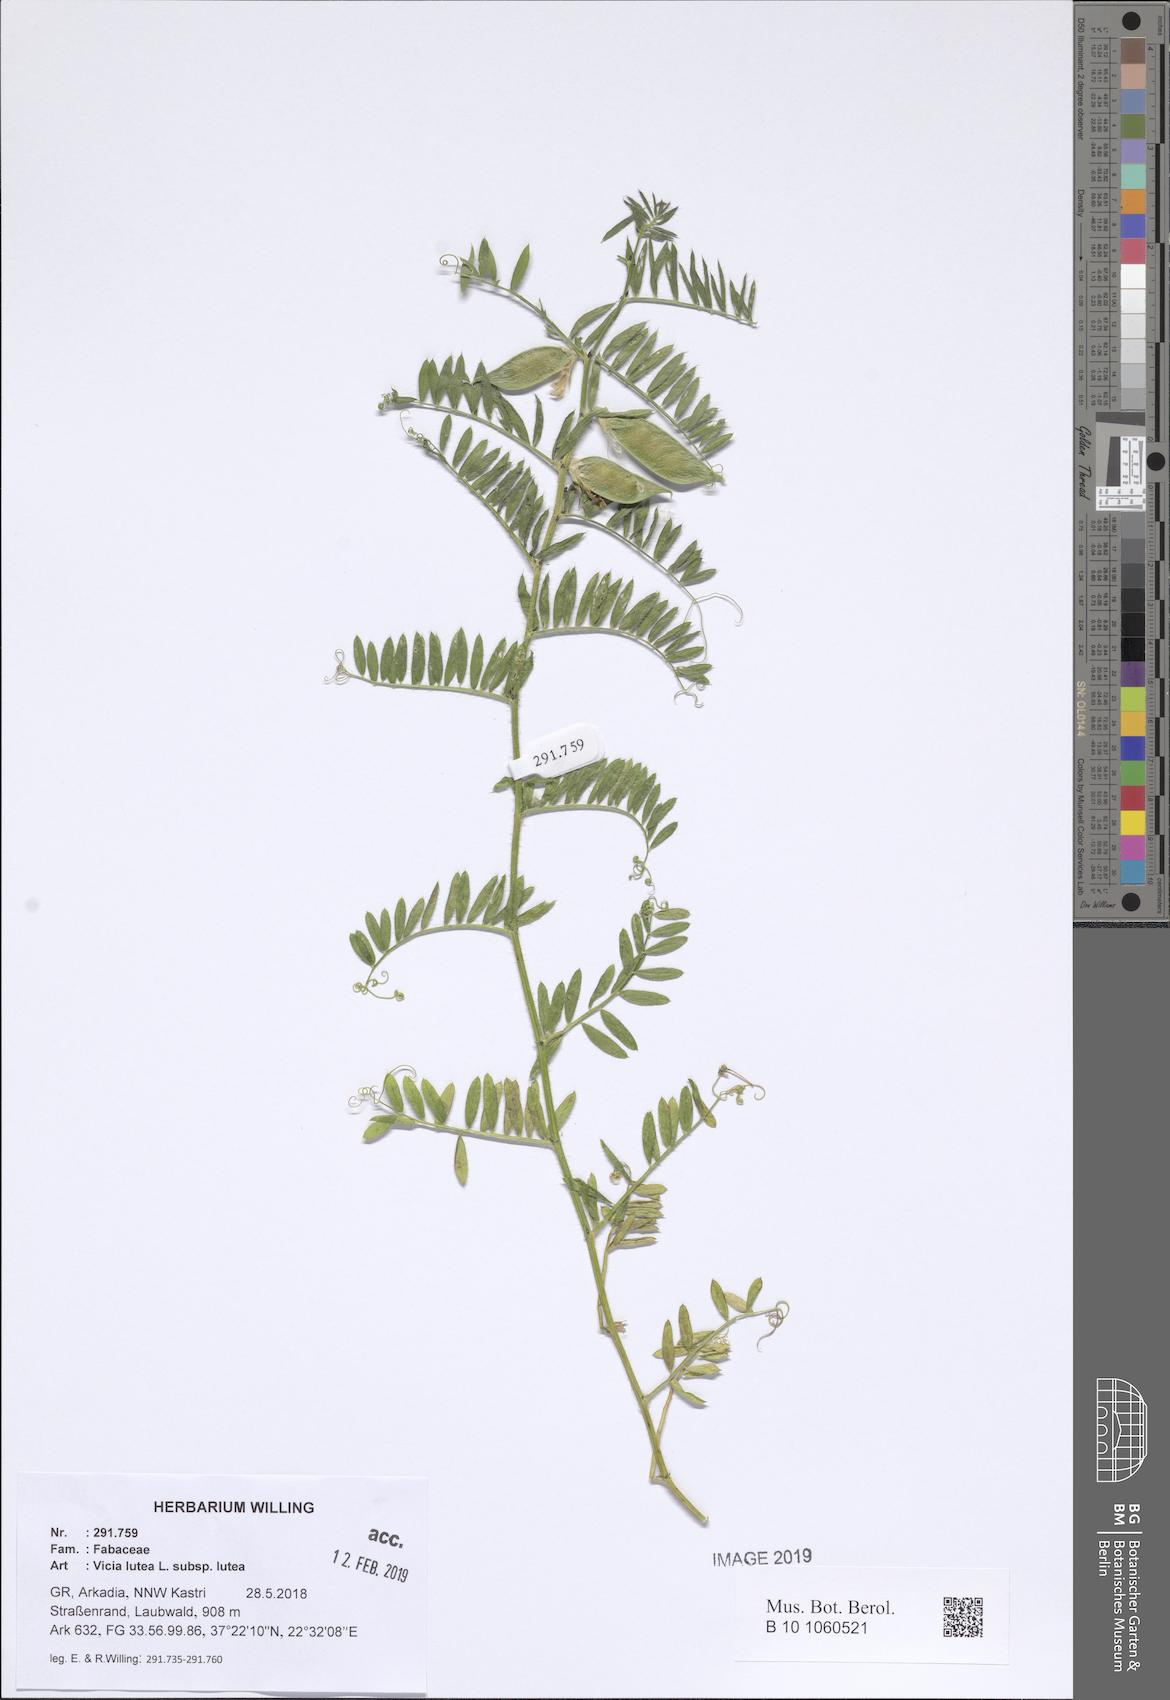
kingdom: Plantae
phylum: Tracheophyta
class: Magnoliopsida
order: Fabales
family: Fabaceae
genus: Vicia
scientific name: Vicia lutea
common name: Smooth yellow vetch
